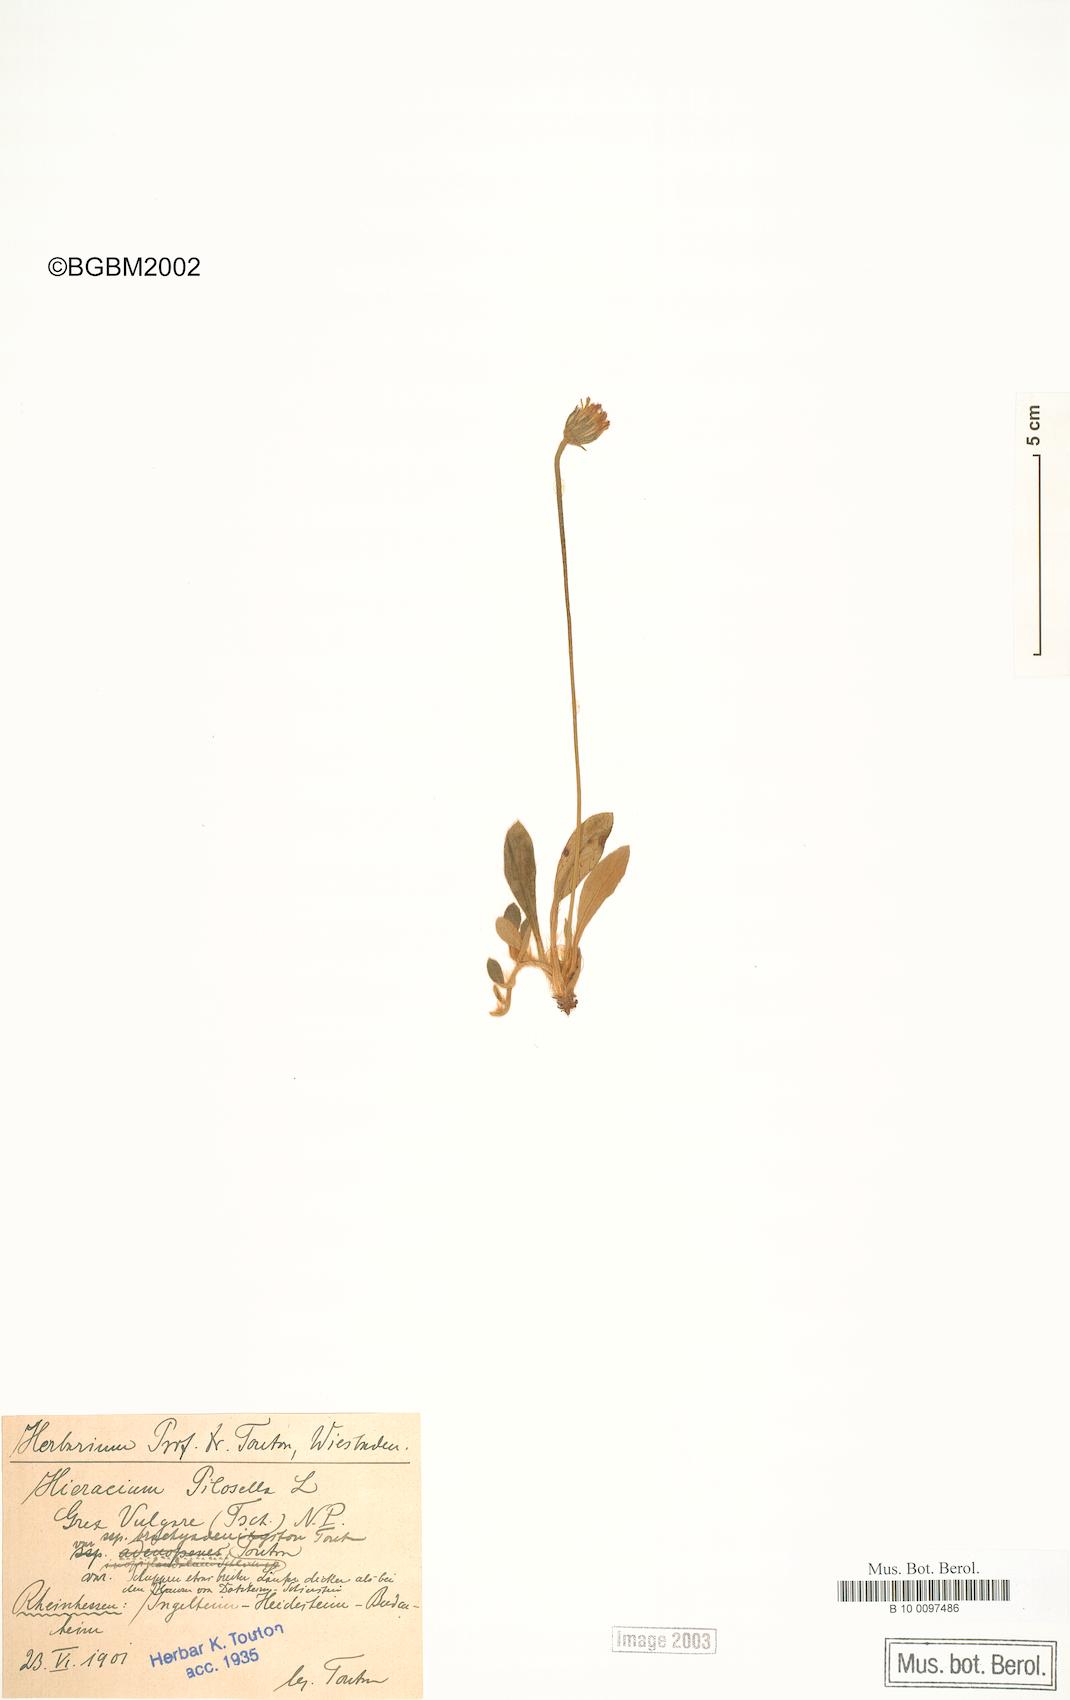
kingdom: Plantae
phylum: Tracheophyta
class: Magnoliopsida
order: Asterales
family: Asteraceae
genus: Pilosella
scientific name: Pilosella officinarum
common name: Mouse-ear hawkweed
